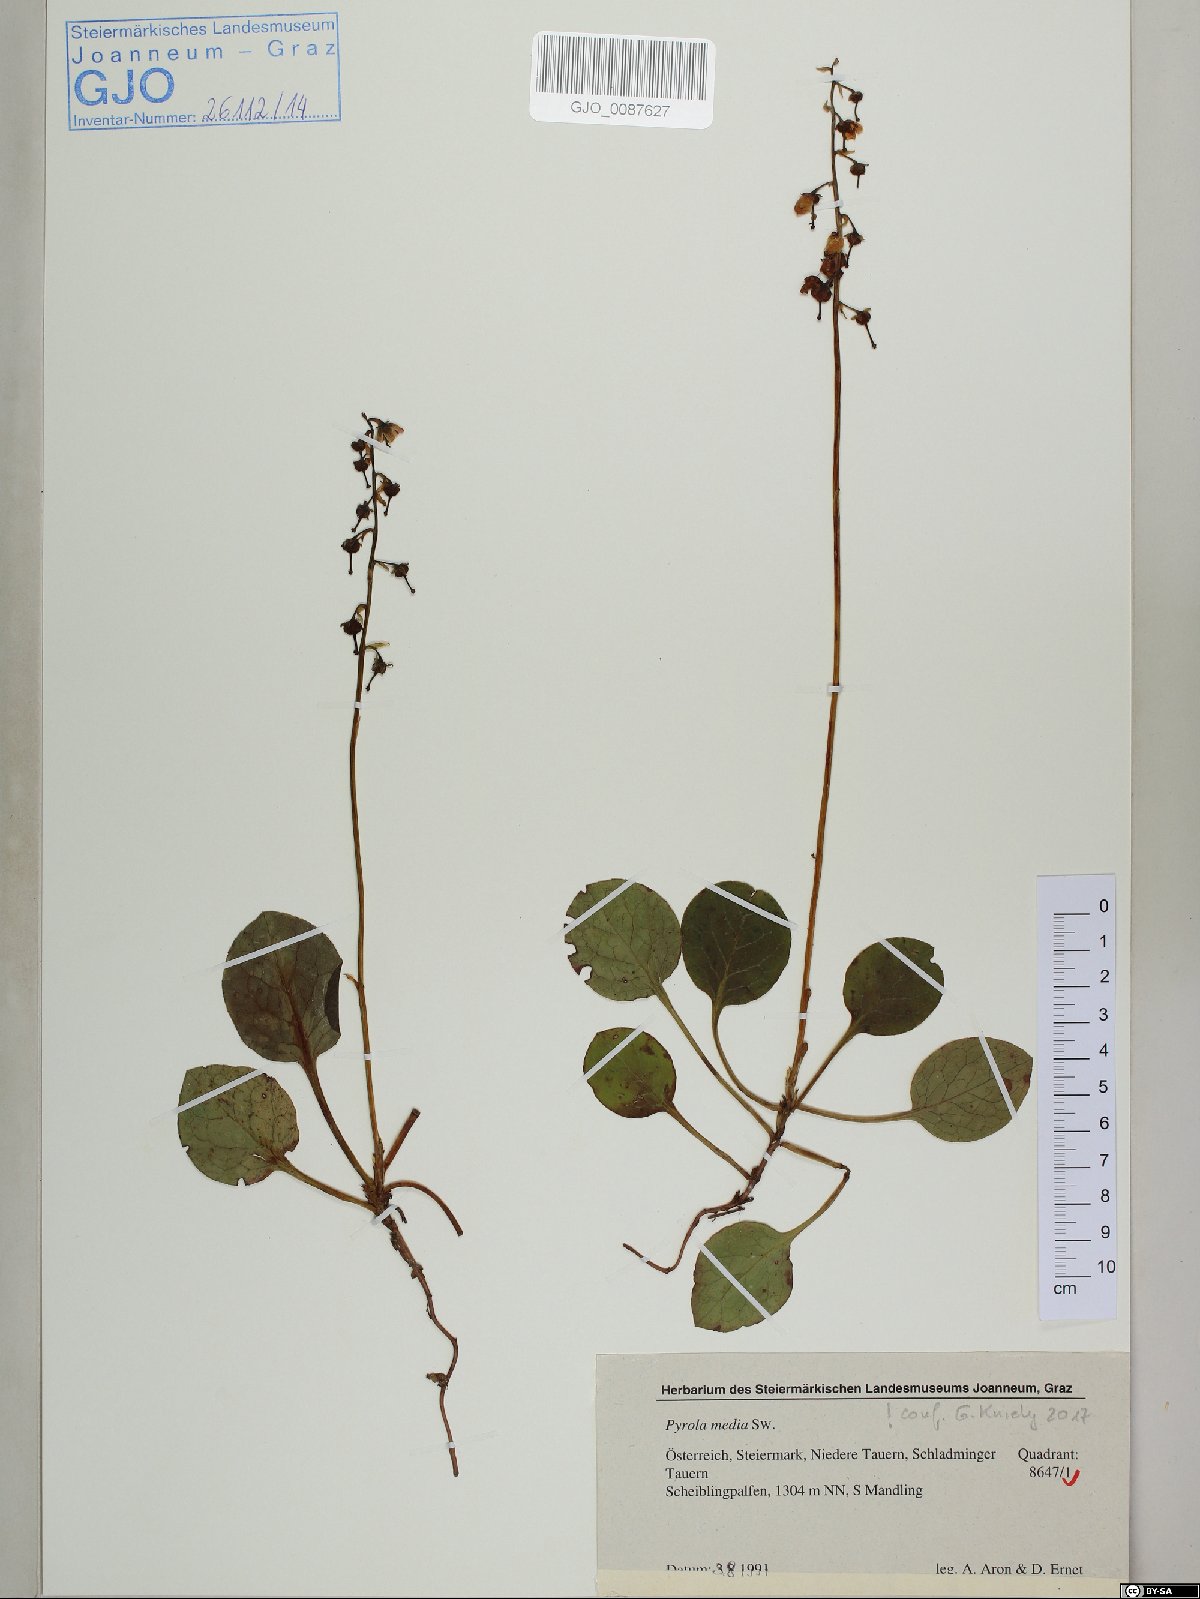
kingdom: Plantae
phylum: Tracheophyta
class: Magnoliopsida
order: Ericales
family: Ericaceae
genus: Pyrola
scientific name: Pyrola media
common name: Intermediate wintergreen
